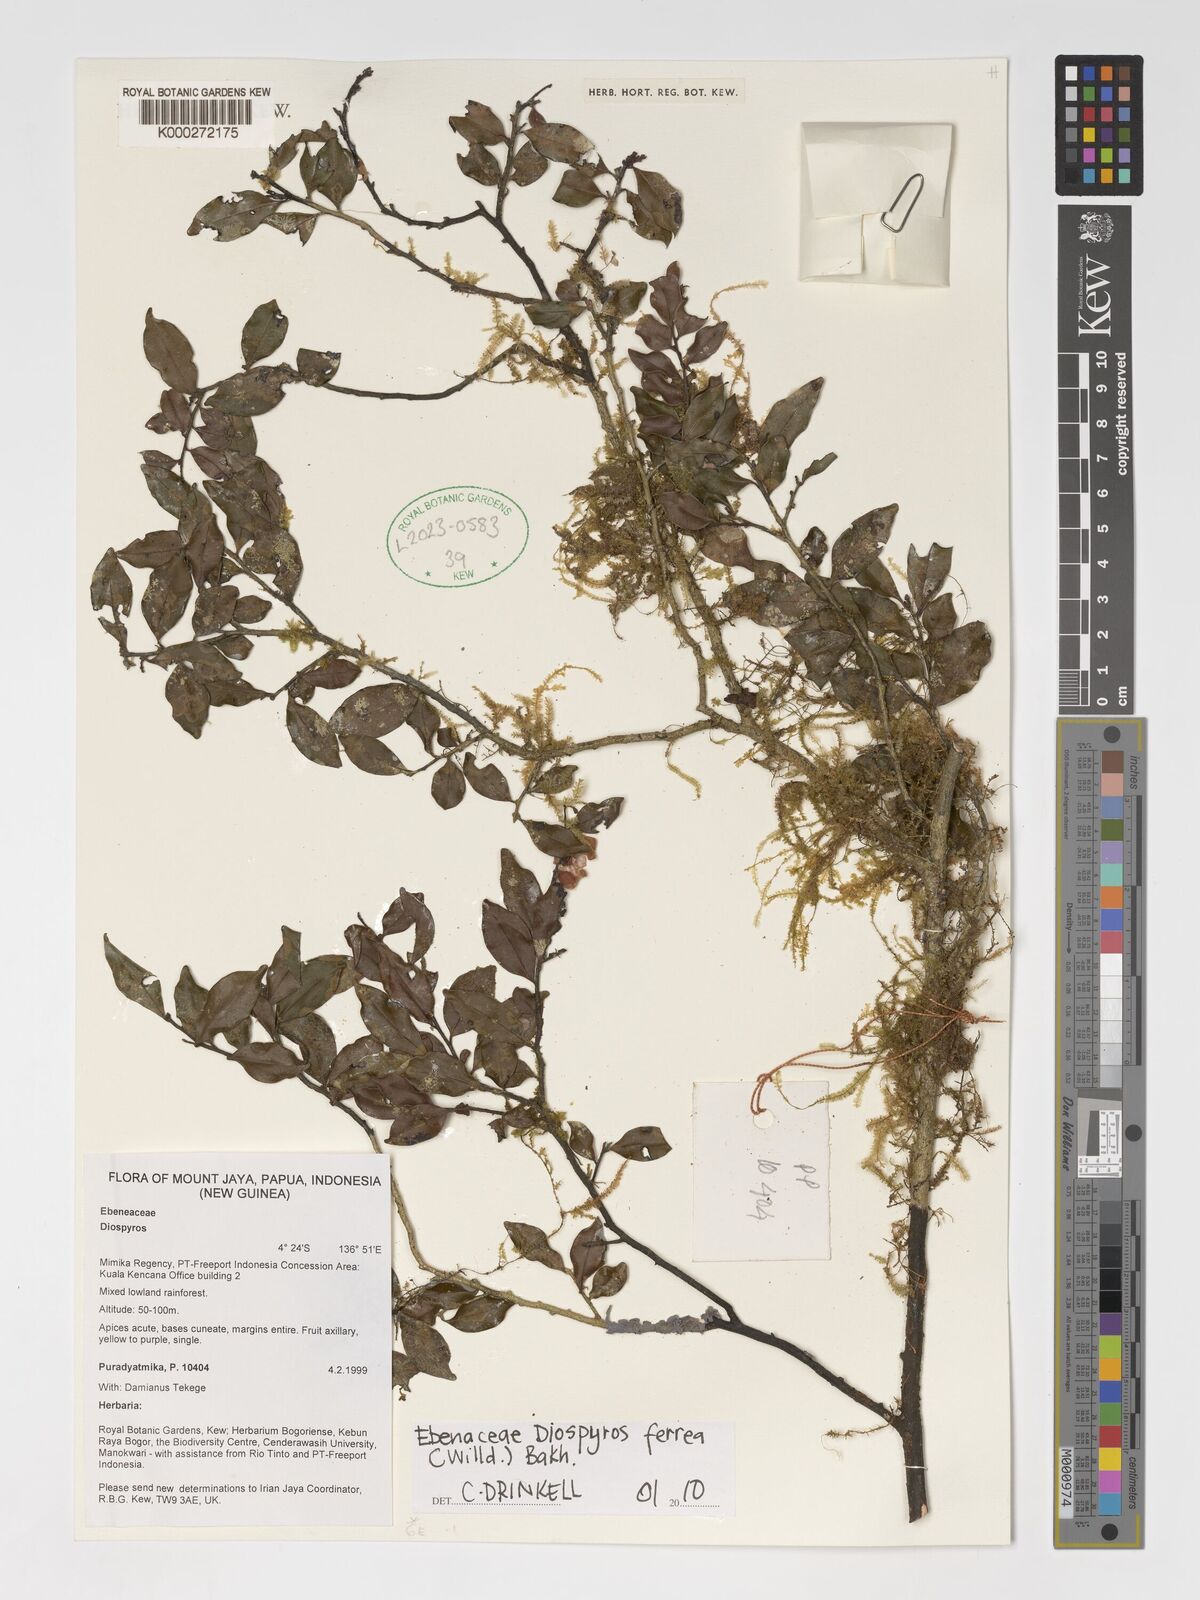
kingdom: Plantae
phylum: Tracheophyta
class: Magnoliopsida
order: Ericales
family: Ebenaceae
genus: Diospyros
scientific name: Diospyros ferrea
